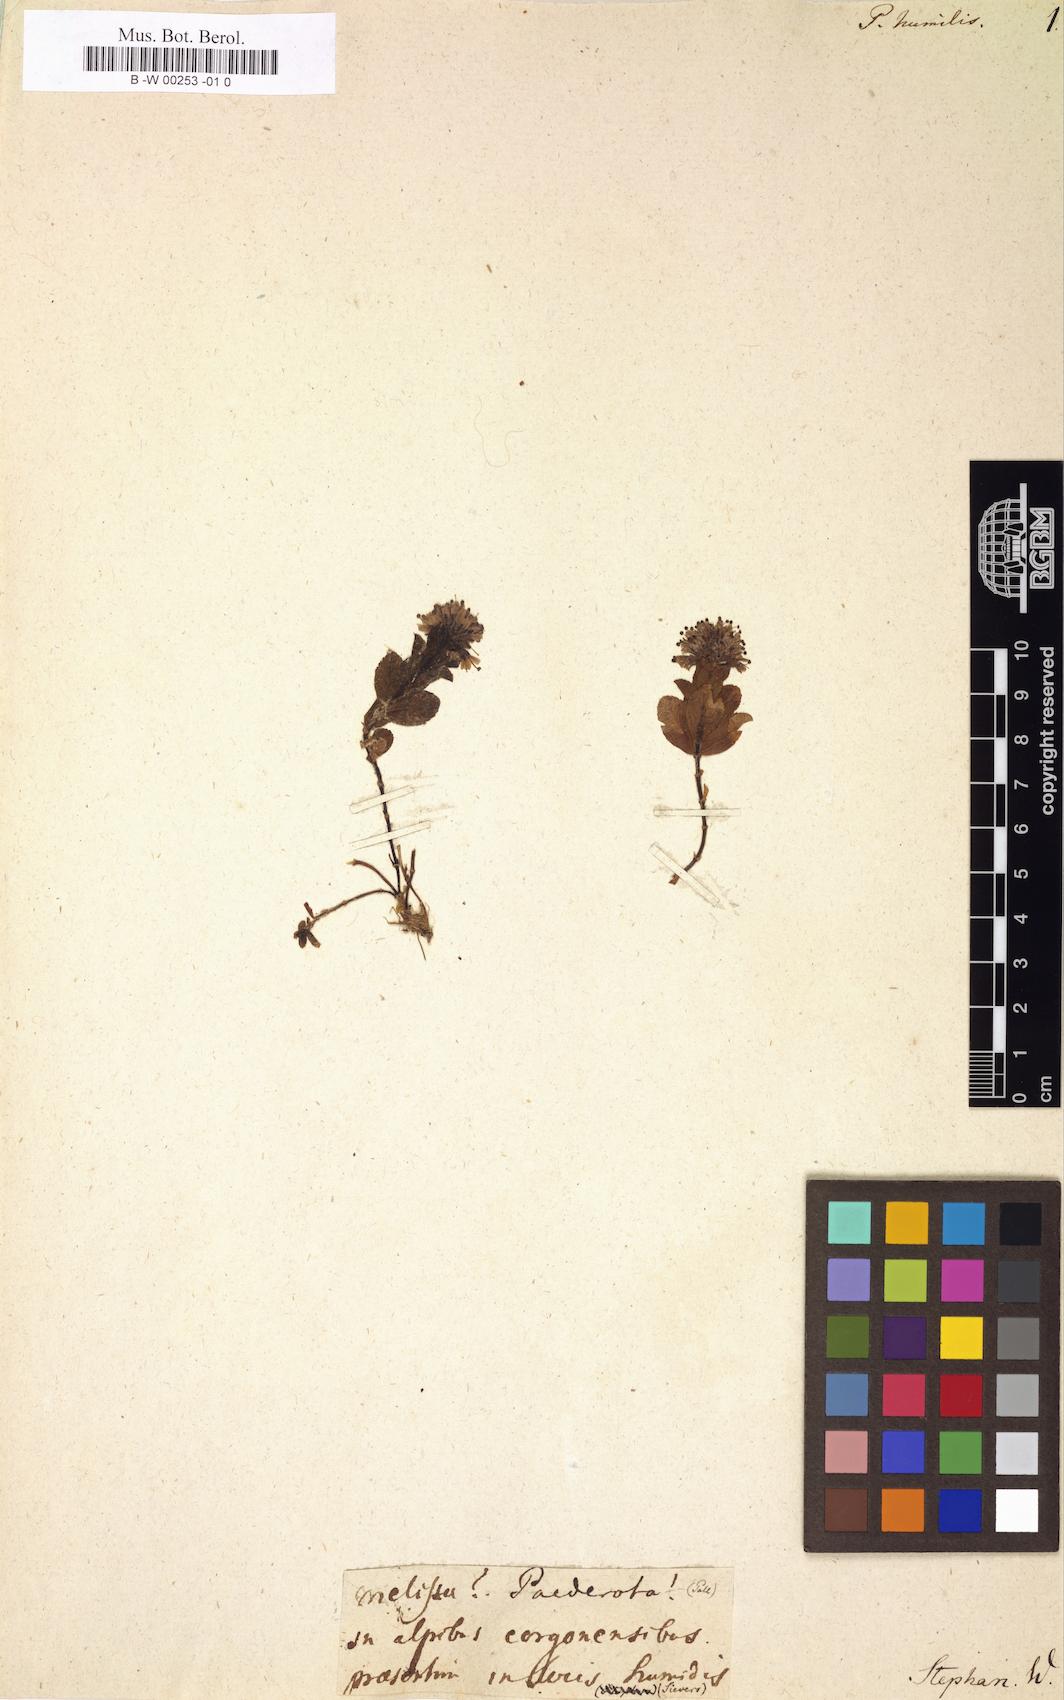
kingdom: Plantae
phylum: Tracheophyta
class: Magnoliopsida
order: Lamiales
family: Plantaginaceae
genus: Veronica
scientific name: Veronica densiflora
